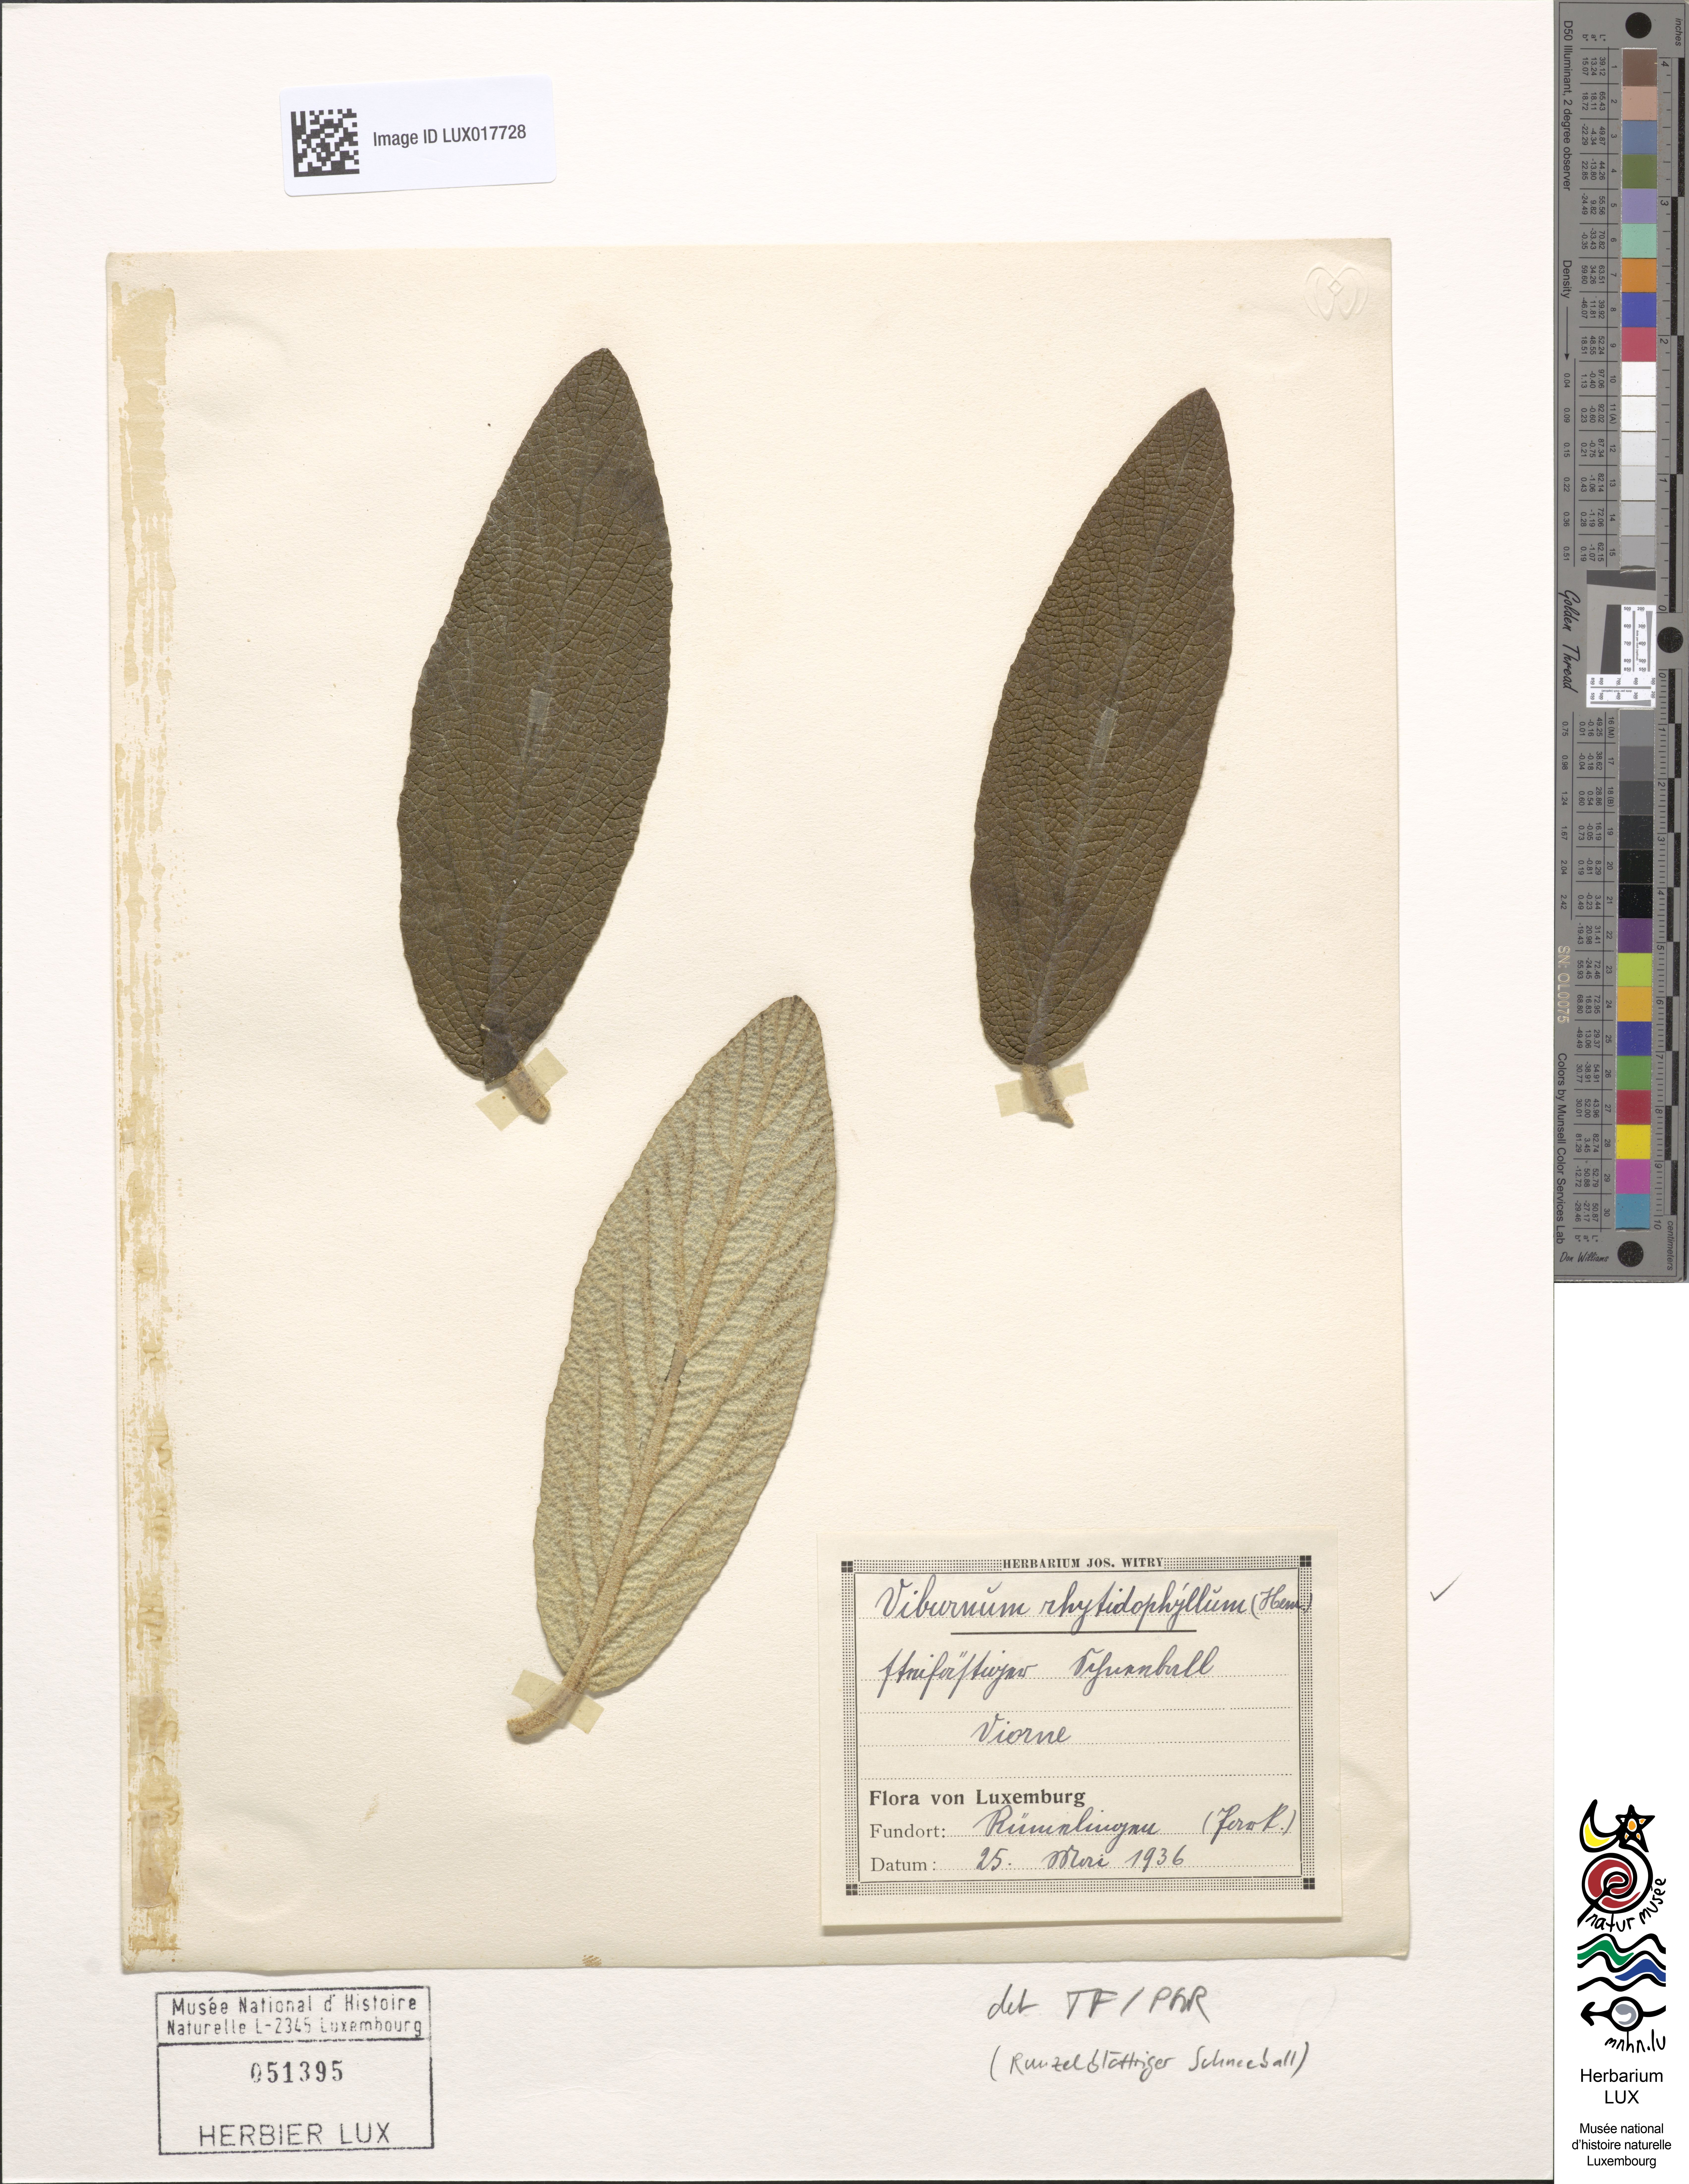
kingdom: Plantae
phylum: Tracheophyta
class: Magnoliopsida
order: Dipsacales
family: Viburnaceae
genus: Viburnum
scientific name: Viburnum rhytidophyllum
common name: Wrinkled viburnum
